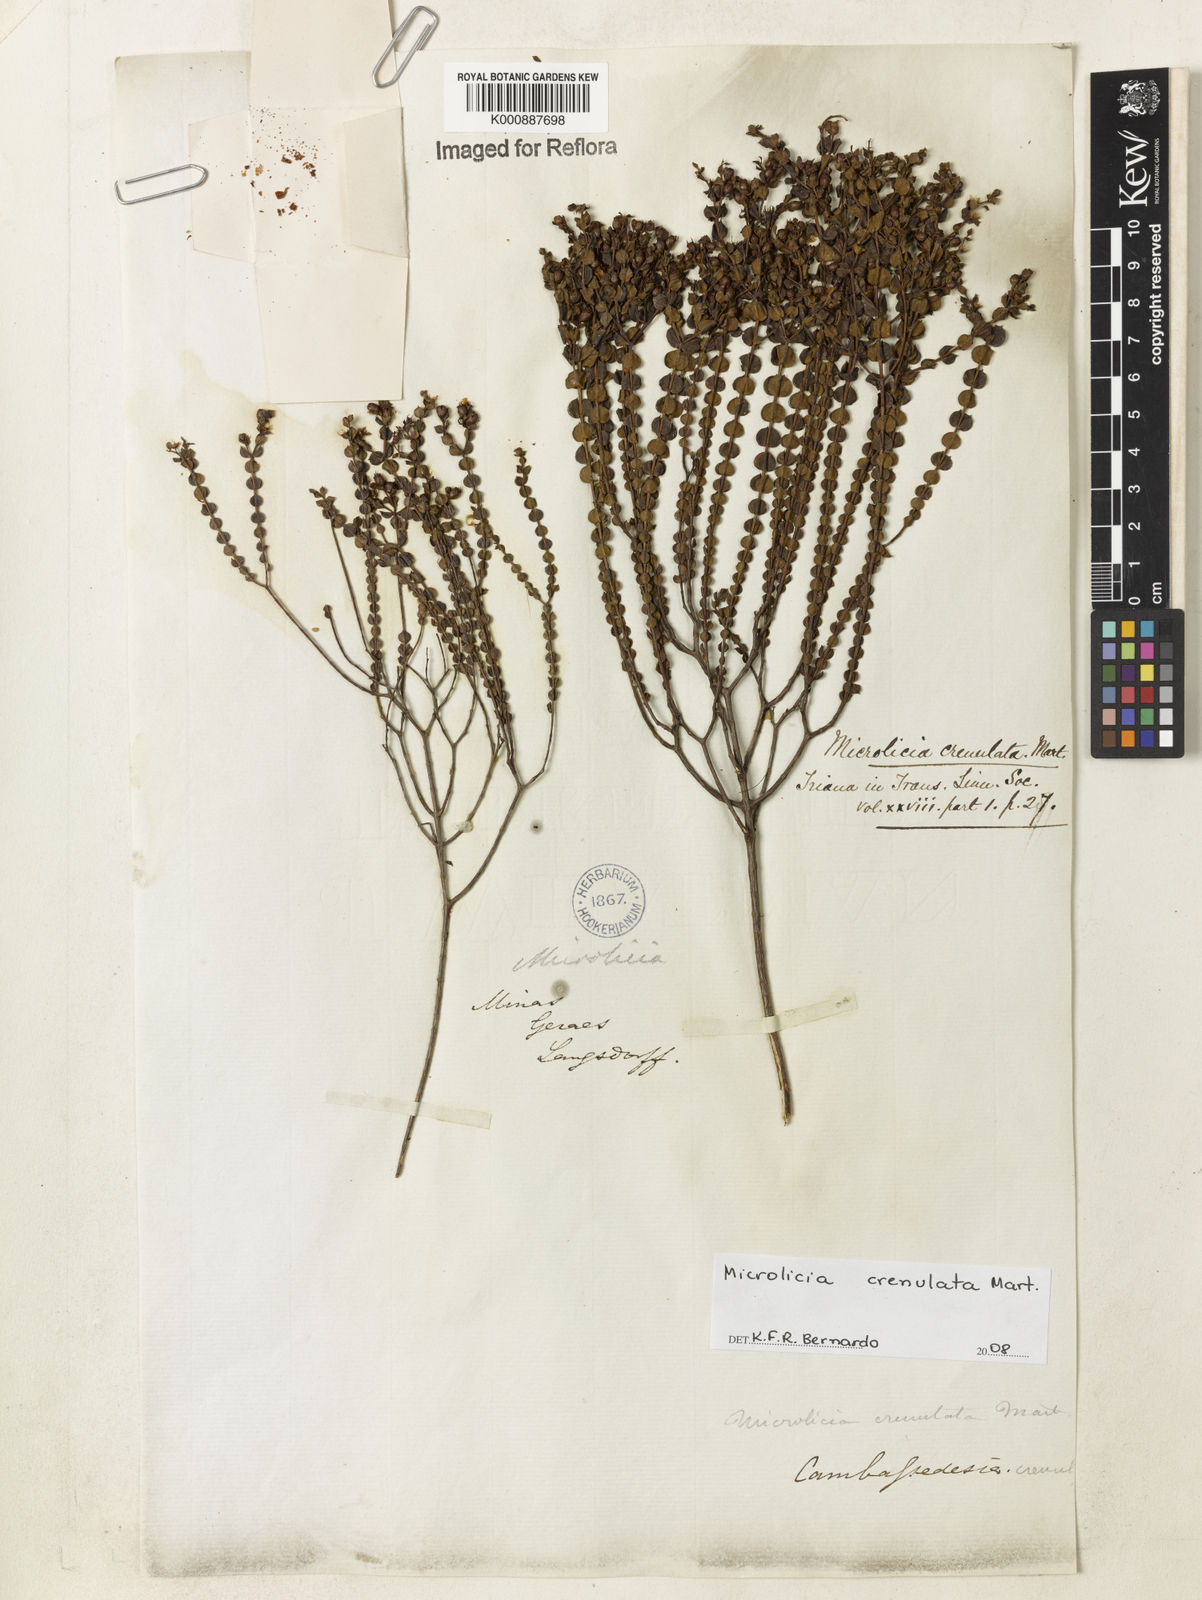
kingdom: Plantae
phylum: Tracheophyta
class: Magnoliopsida
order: Myrtales
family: Melastomataceae
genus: Microlicia
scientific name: Microlicia crenulata
